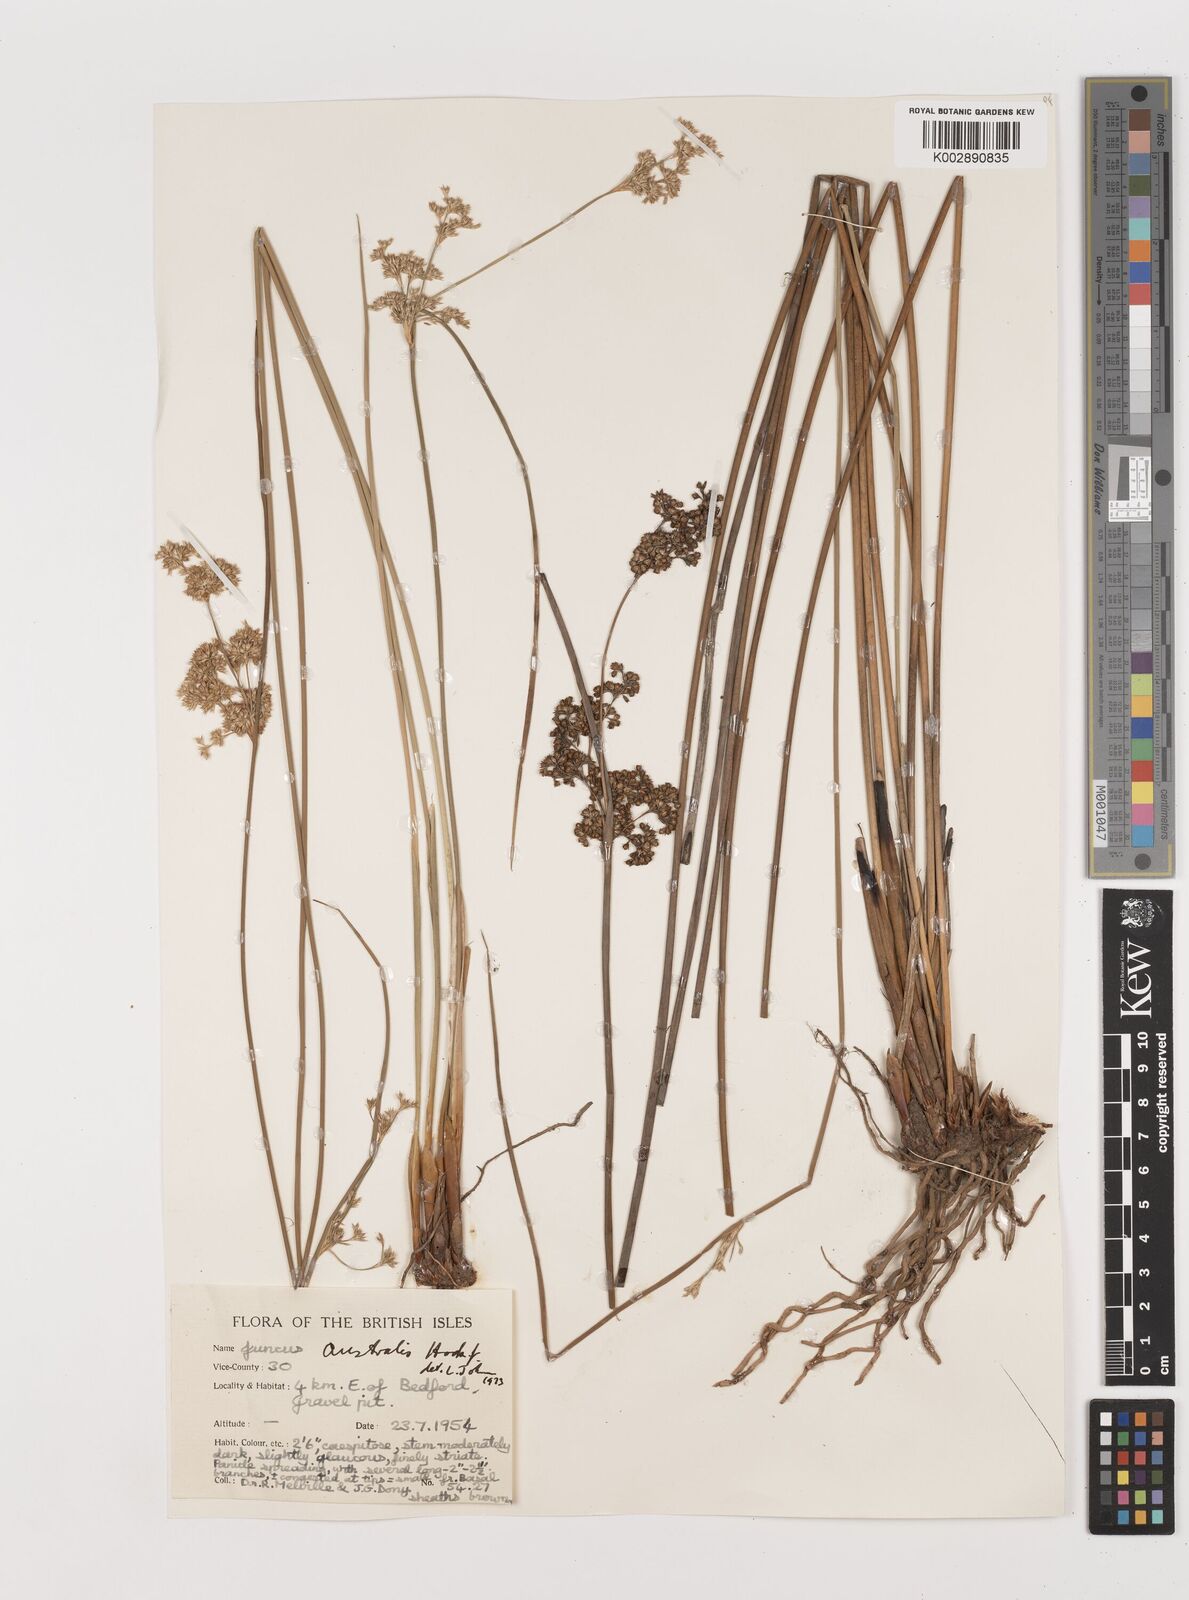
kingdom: Plantae
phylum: Tracheophyta
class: Liliopsida
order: Poales
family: Juncaceae
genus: Juncus
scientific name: Juncus australis
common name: Austral rush
